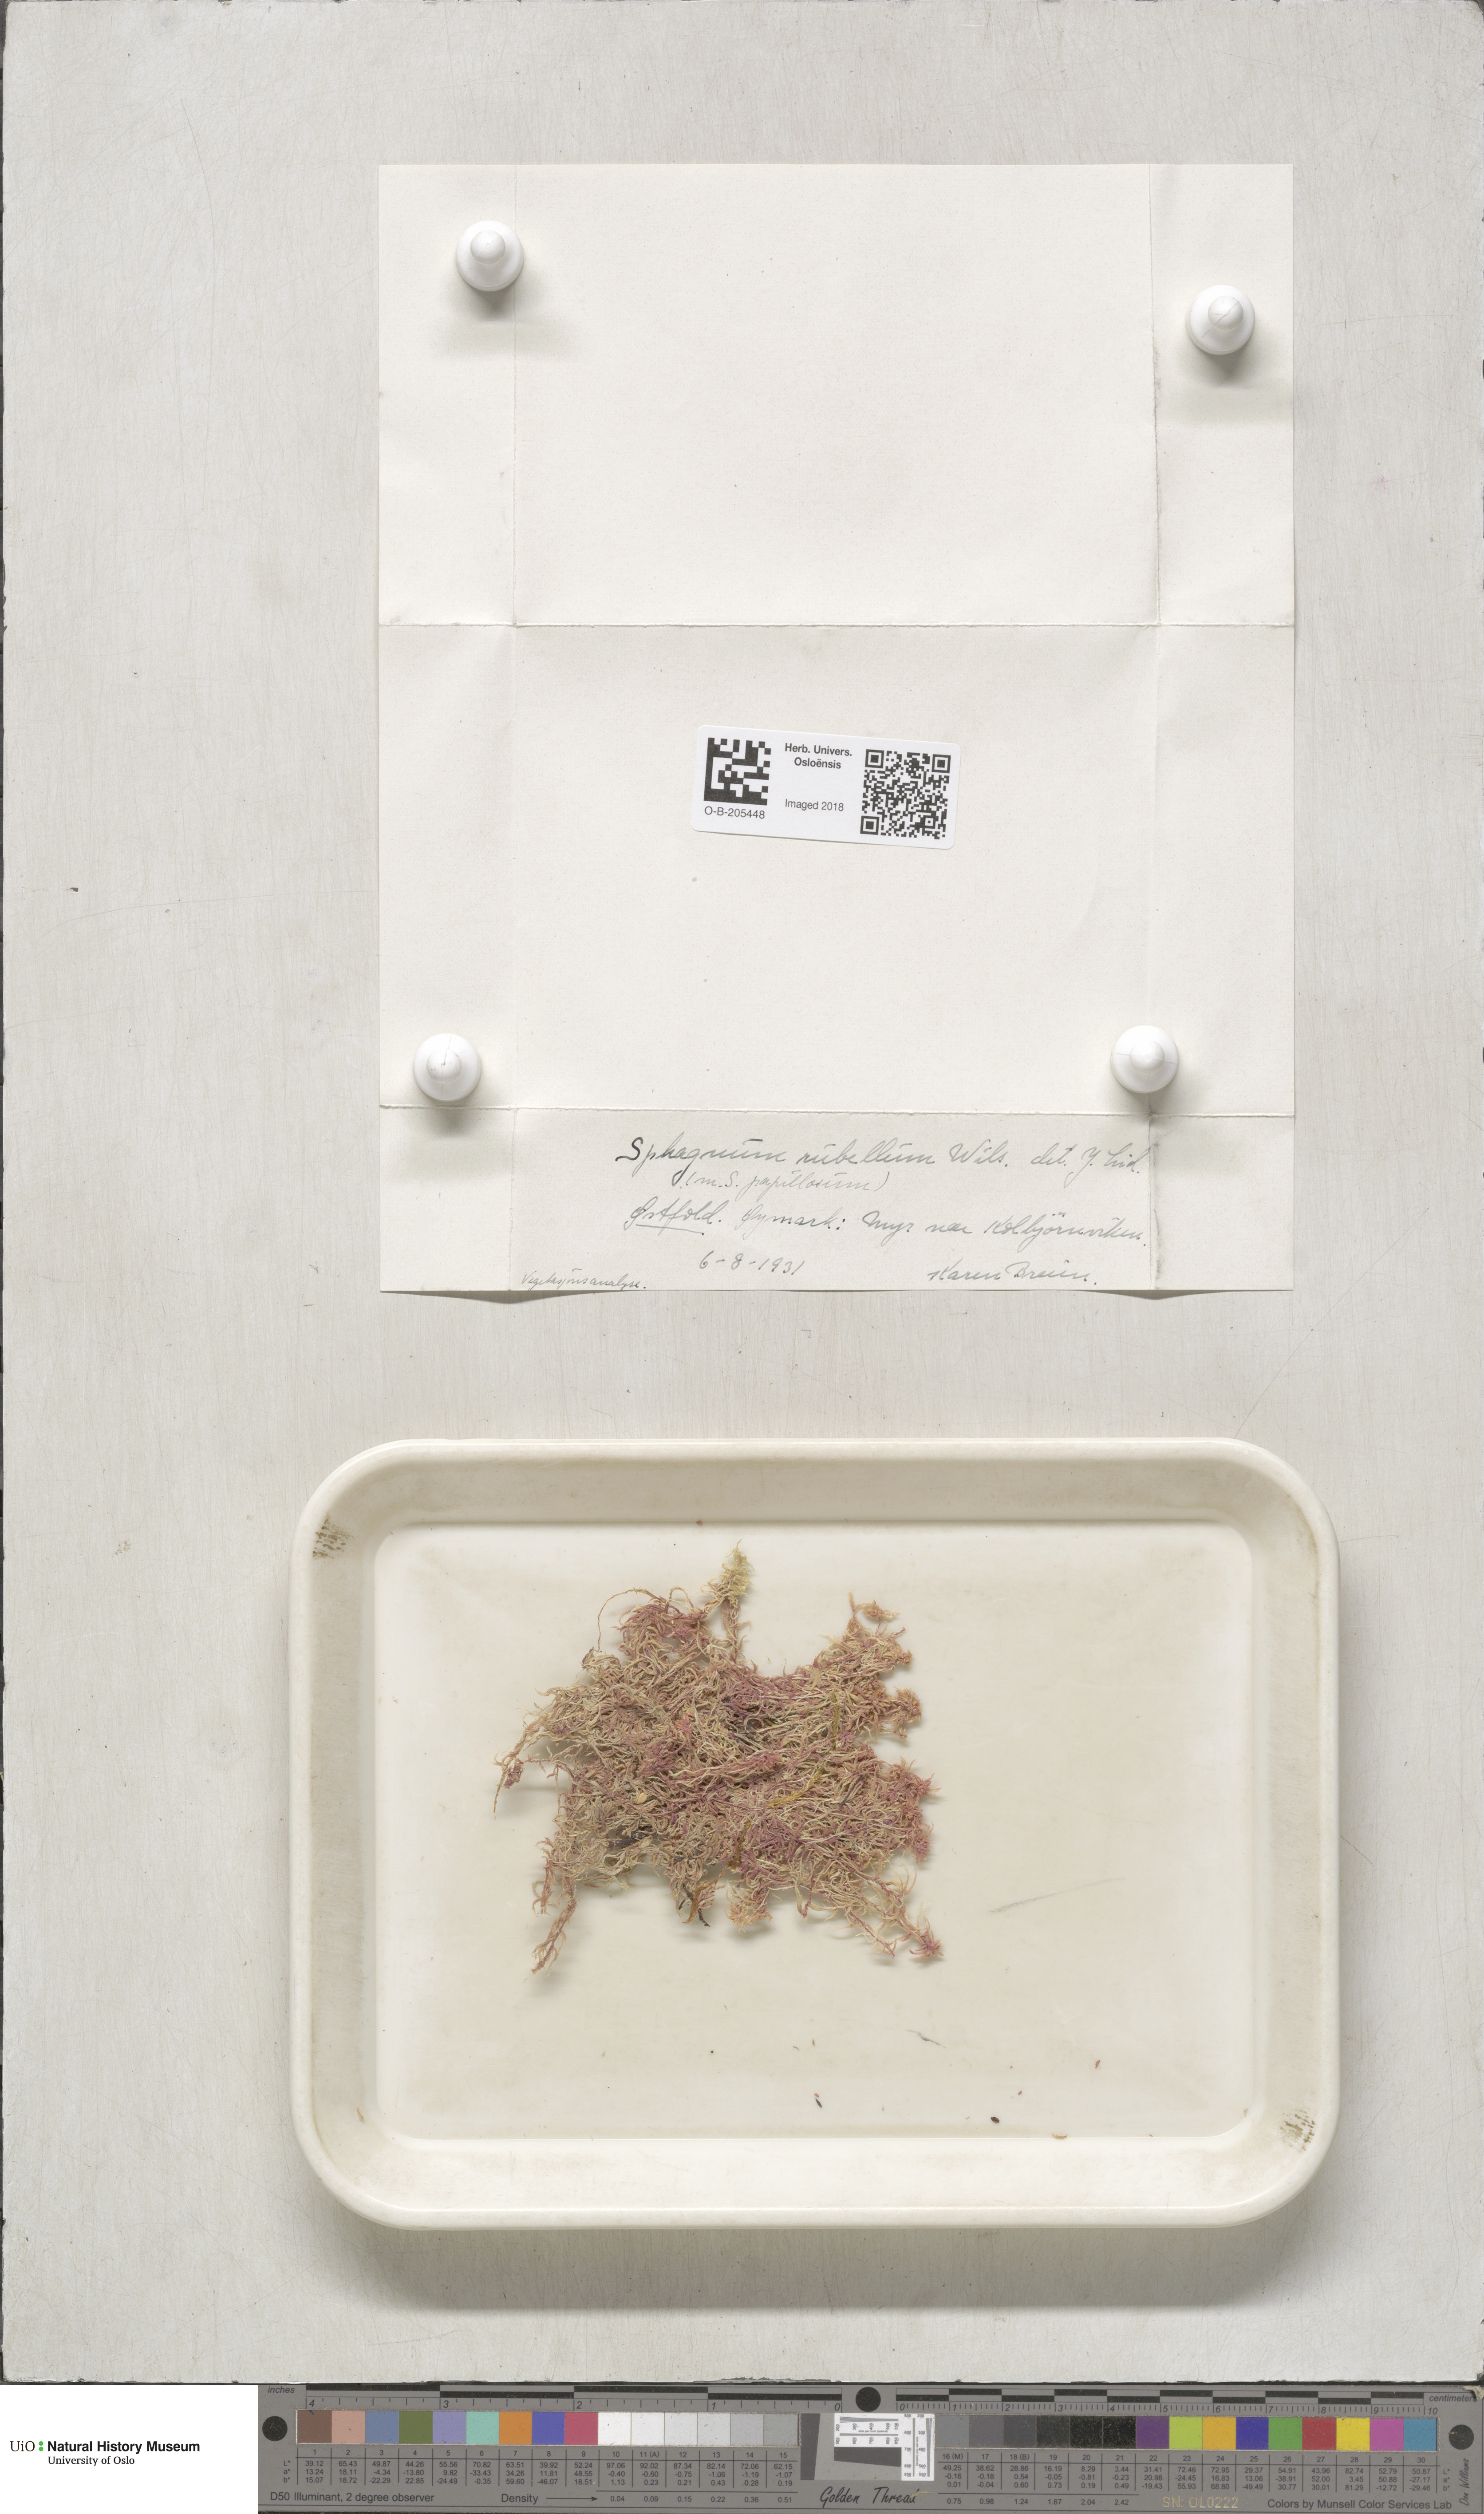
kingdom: Plantae
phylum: Bryophyta
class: Sphagnopsida
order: Sphagnales
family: Sphagnaceae
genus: Sphagnum
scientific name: Sphagnum rubellum
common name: Red peat moss
